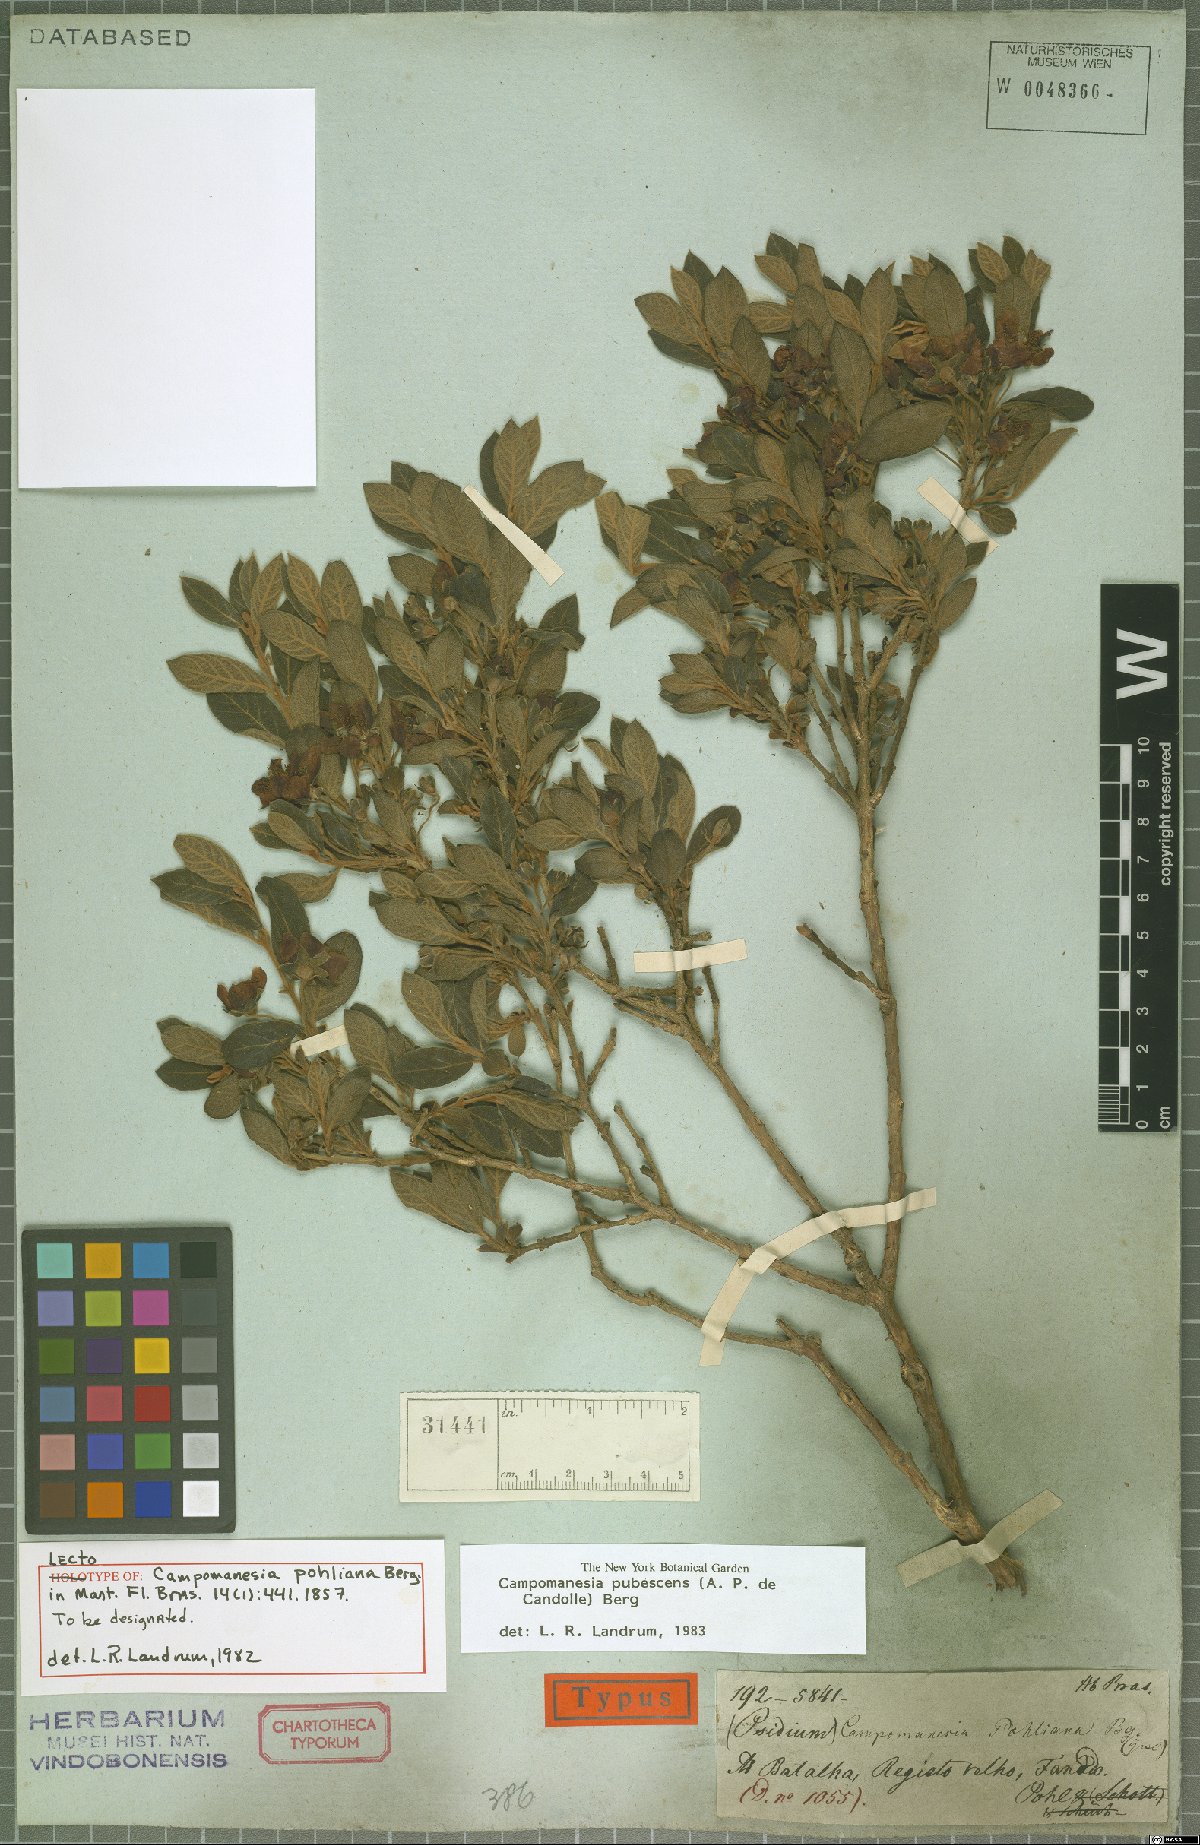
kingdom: Plantae
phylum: Tracheophyta
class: Magnoliopsida
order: Myrtales
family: Myrtaceae
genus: Campomanesia
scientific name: Campomanesia pubescens
